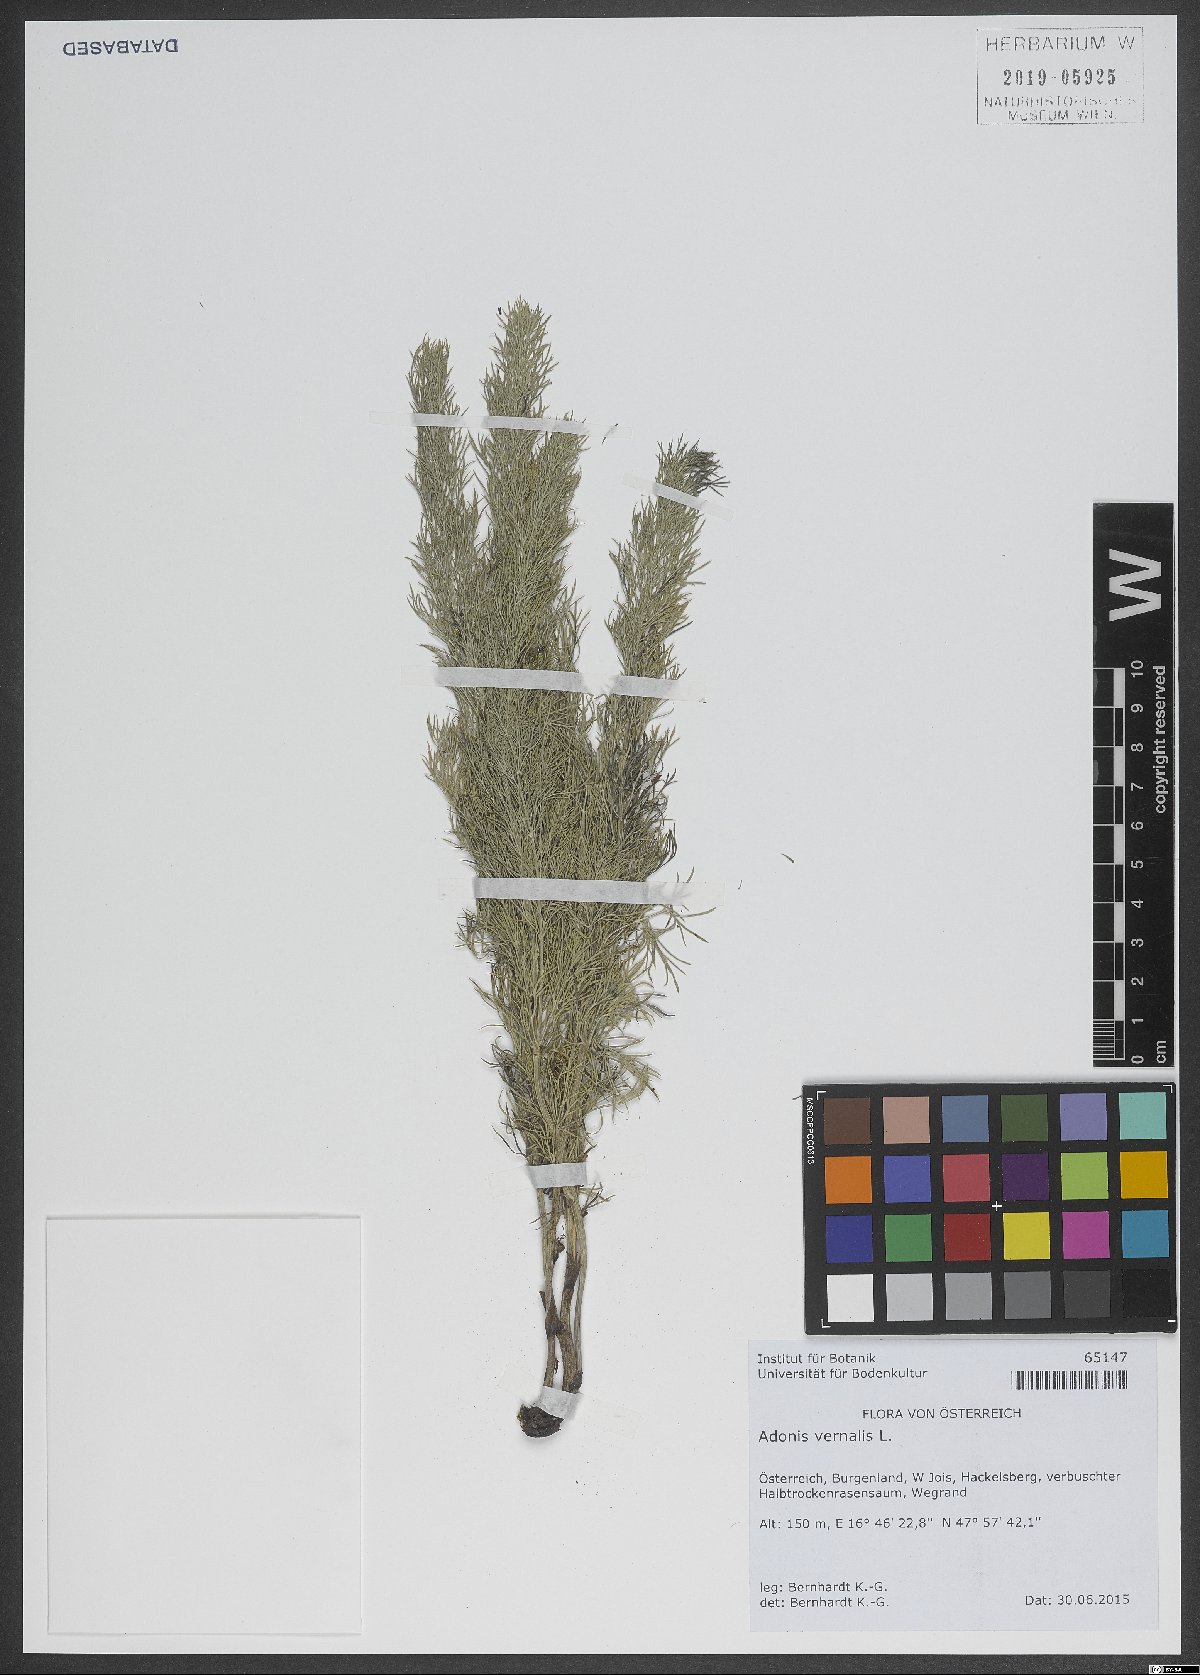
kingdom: Plantae
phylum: Tracheophyta
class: Magnoliopsida
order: Ranunculales
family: Ranunculaceae
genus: Adonis
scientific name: Adonis vernalis
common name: Yellow pheasants-eye
